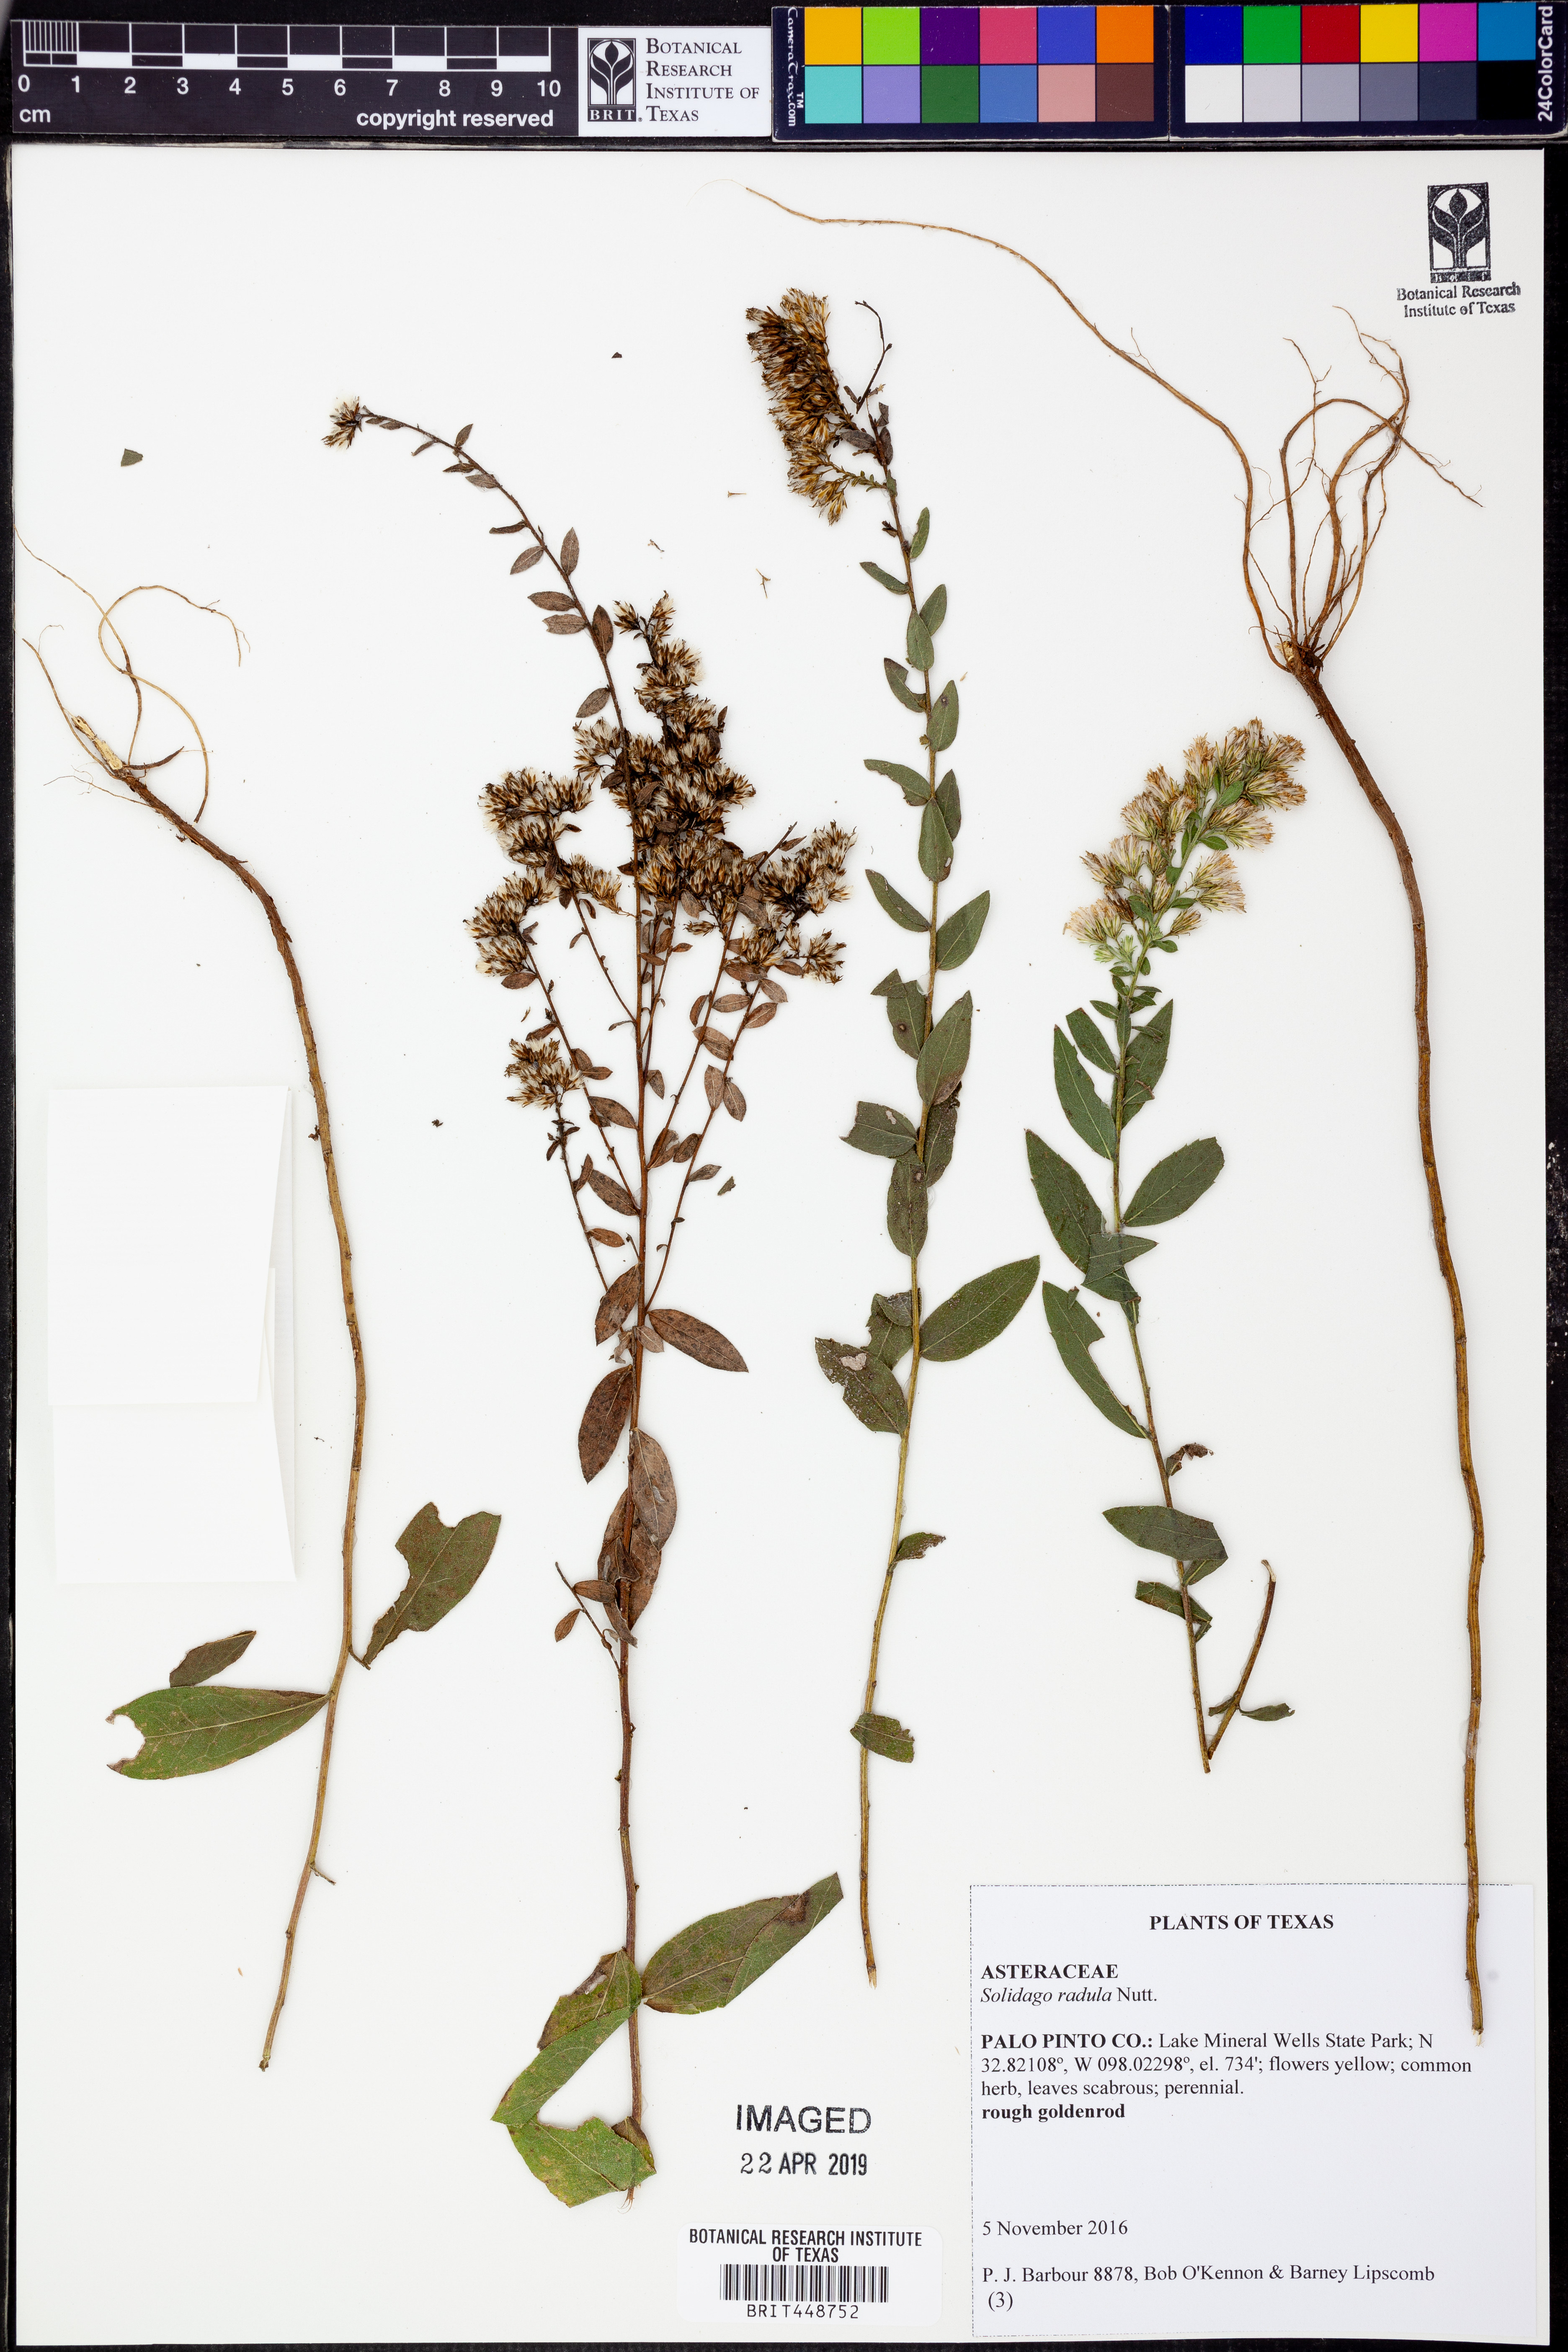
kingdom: Plantae
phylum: Tracheophyta
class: Magnoliopsida
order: Asterales
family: Asteraceae
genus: Solidago
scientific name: Solidago radula
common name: Western rough goldenrod
